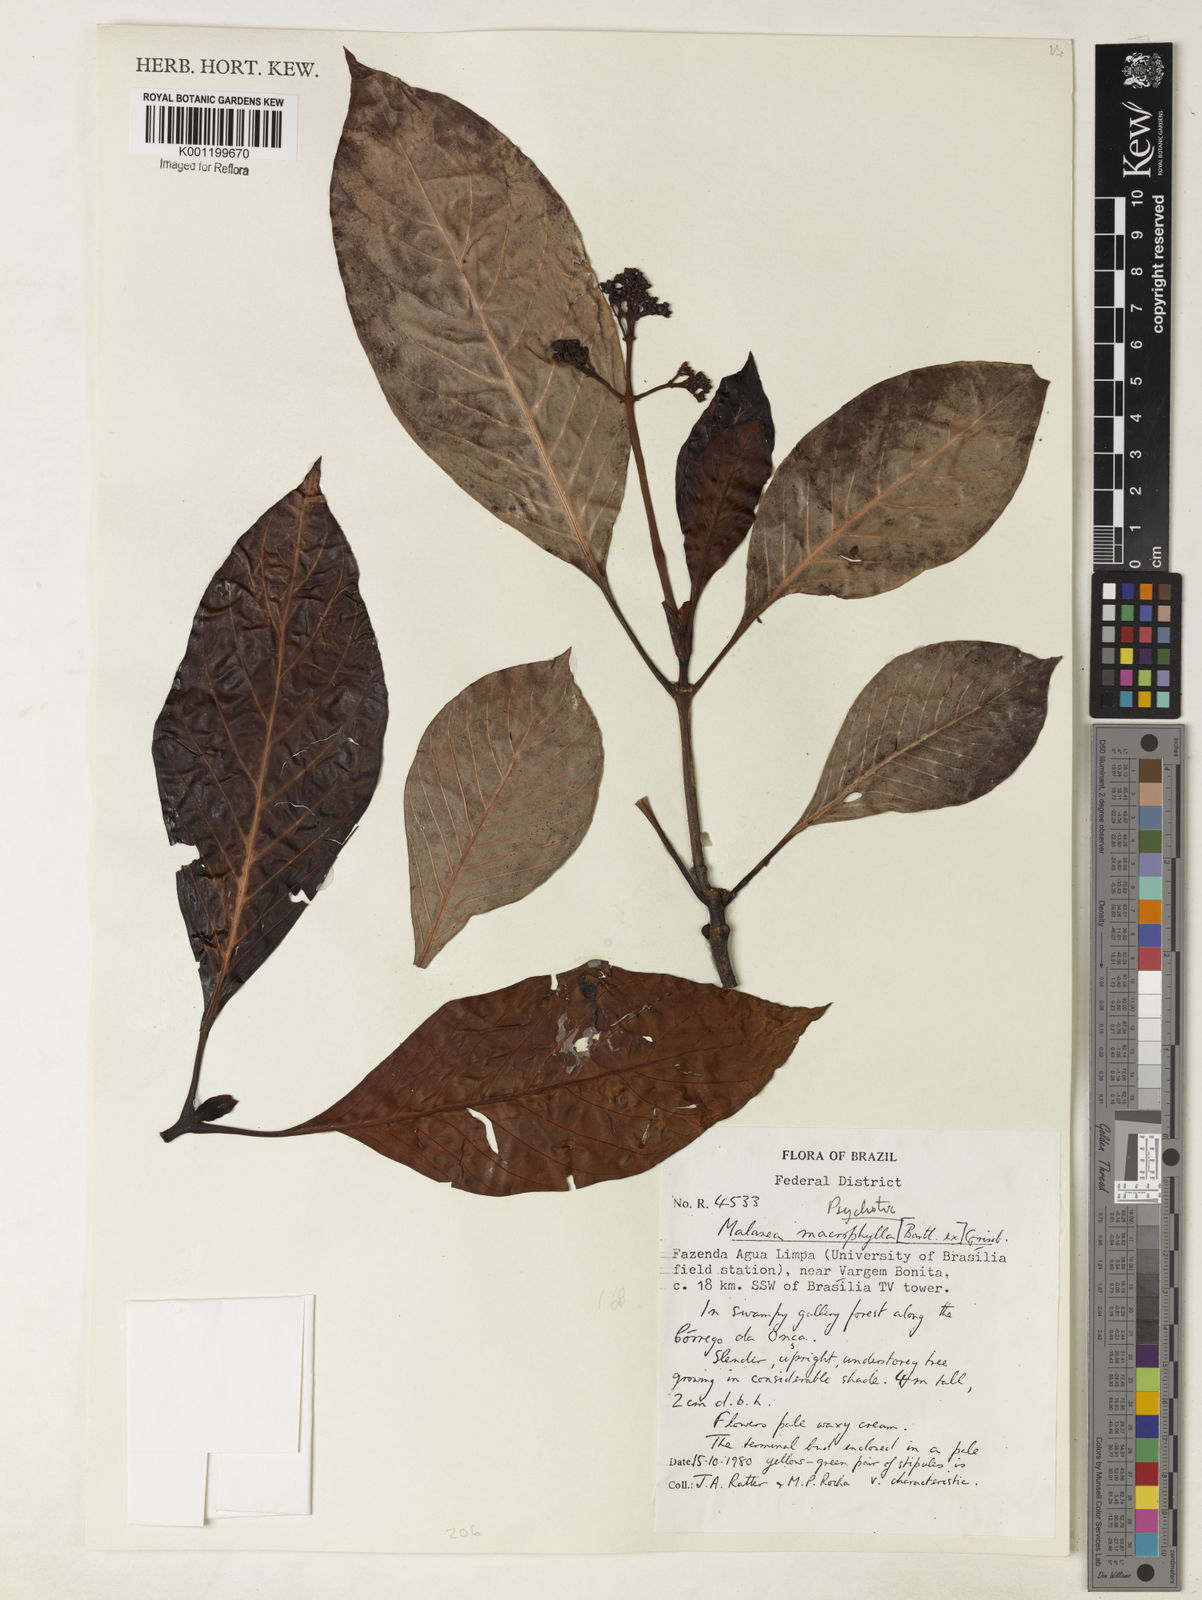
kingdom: Plantae
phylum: Tracheophyta
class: Magnoliopsida
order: Gentianales
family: Rubiaceae
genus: Psychotria
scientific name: Psychotria carthagenensis
